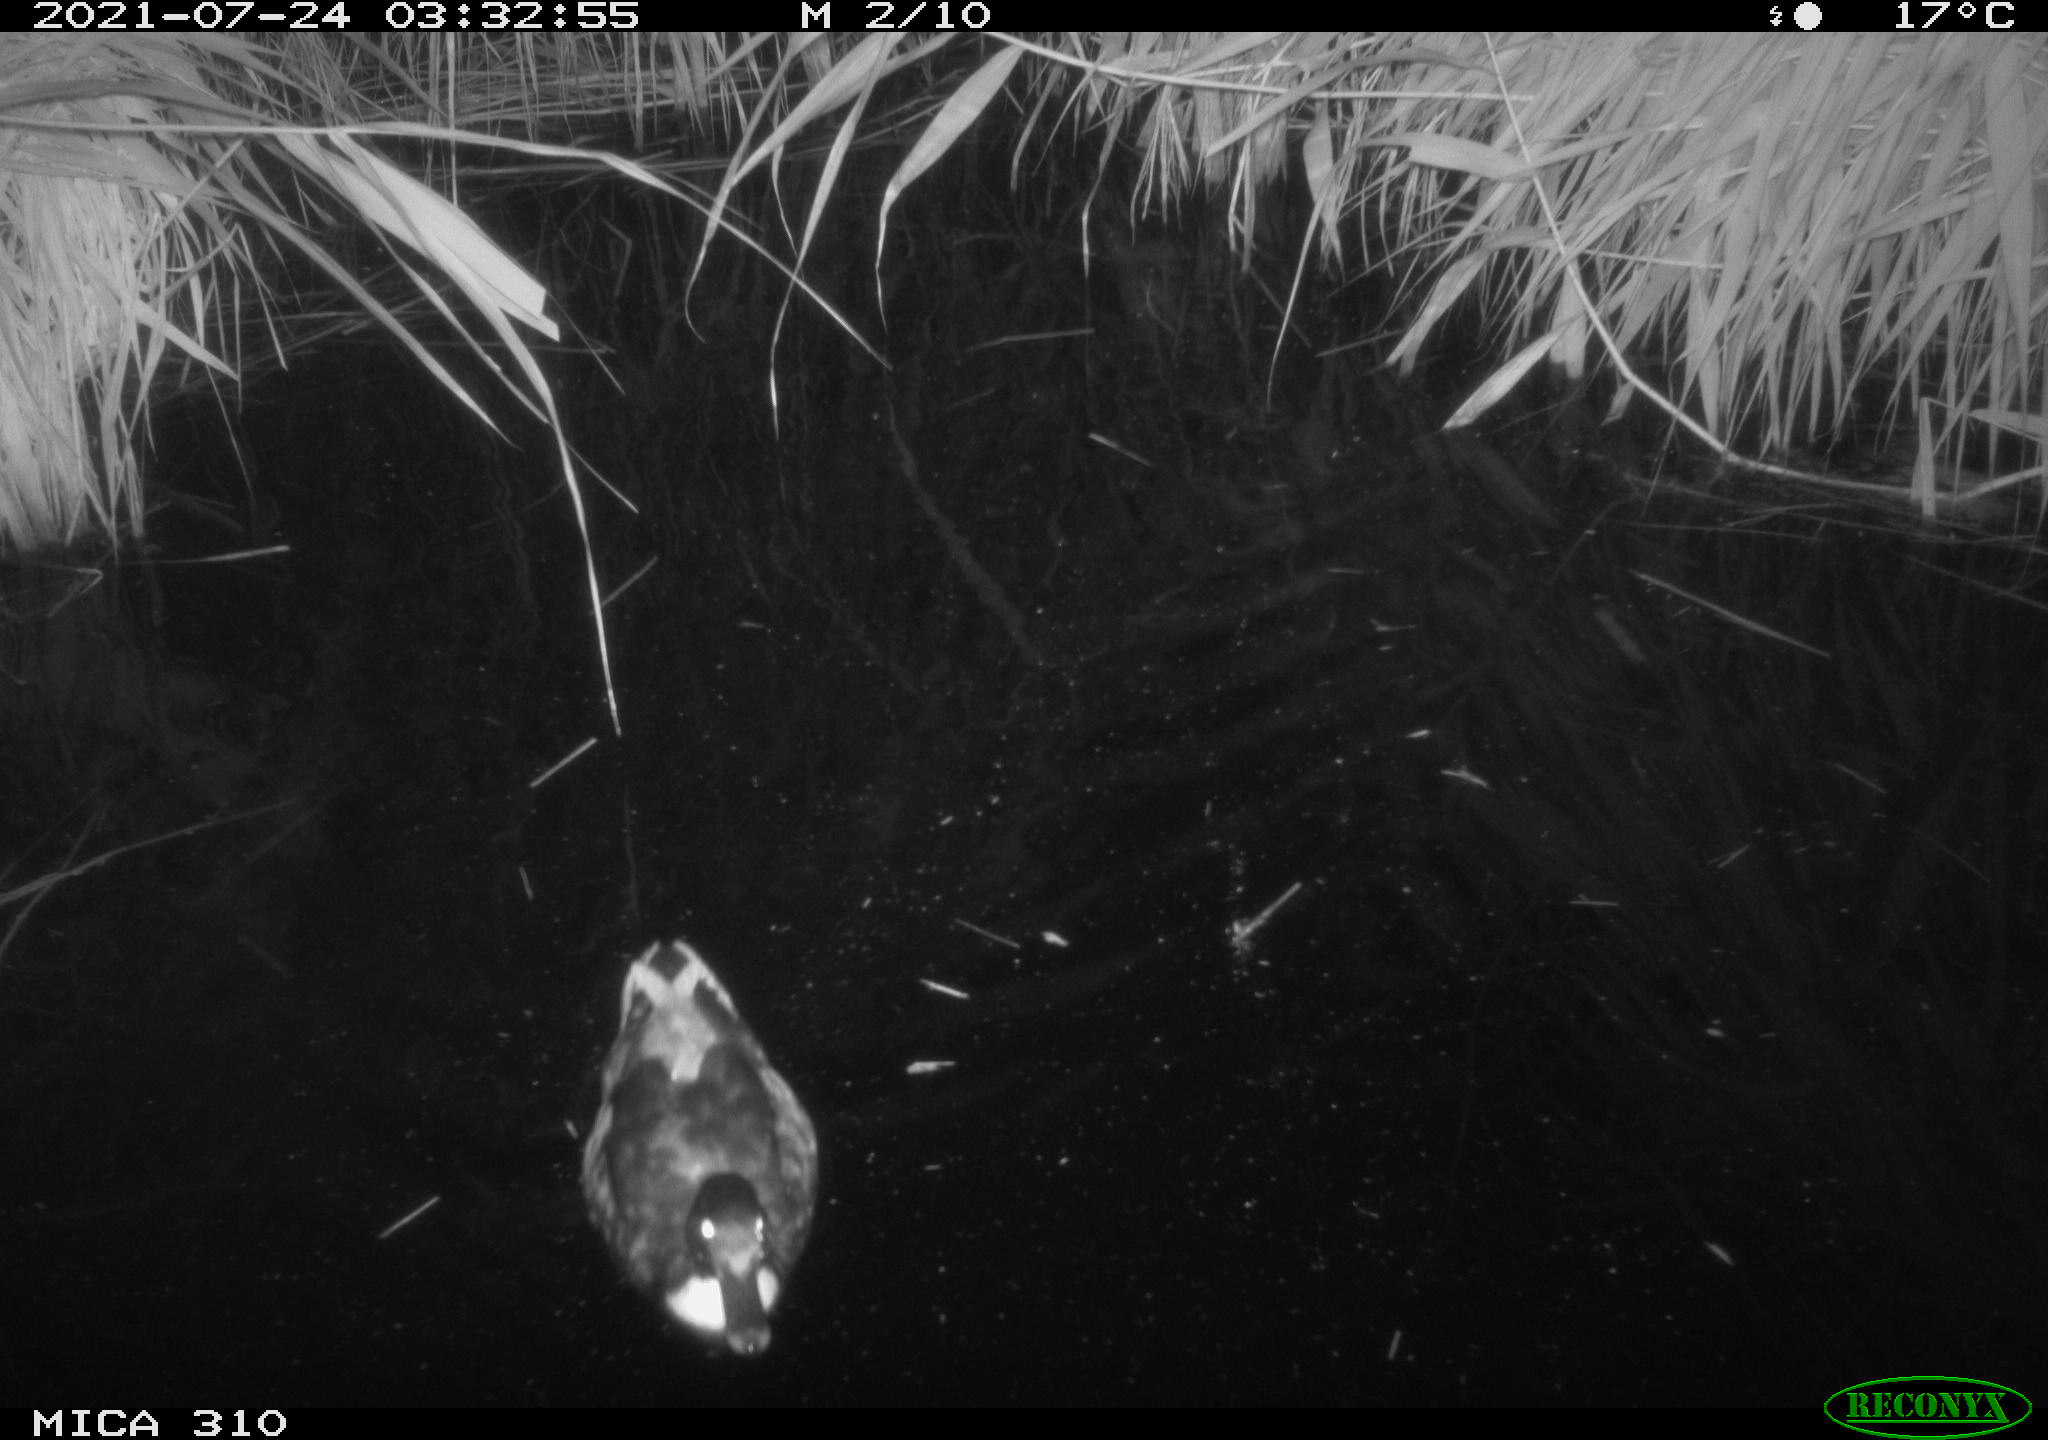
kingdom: Animalia
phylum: Chordata
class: Aves
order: Anseriformes
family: Anatidae
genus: Anas
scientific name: Anas platyrhynchos
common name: Mallard
